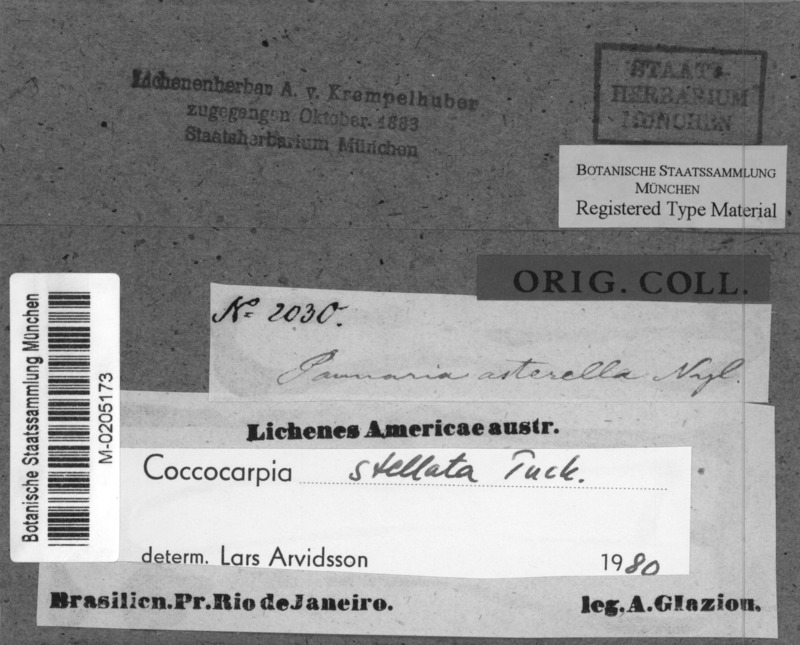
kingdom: Fungi
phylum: Ascomycota
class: Lecanoromycetes
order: Peltigerales
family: Coccocarpiaceae
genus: Coccocarpia
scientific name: Coccocarpia stellata
